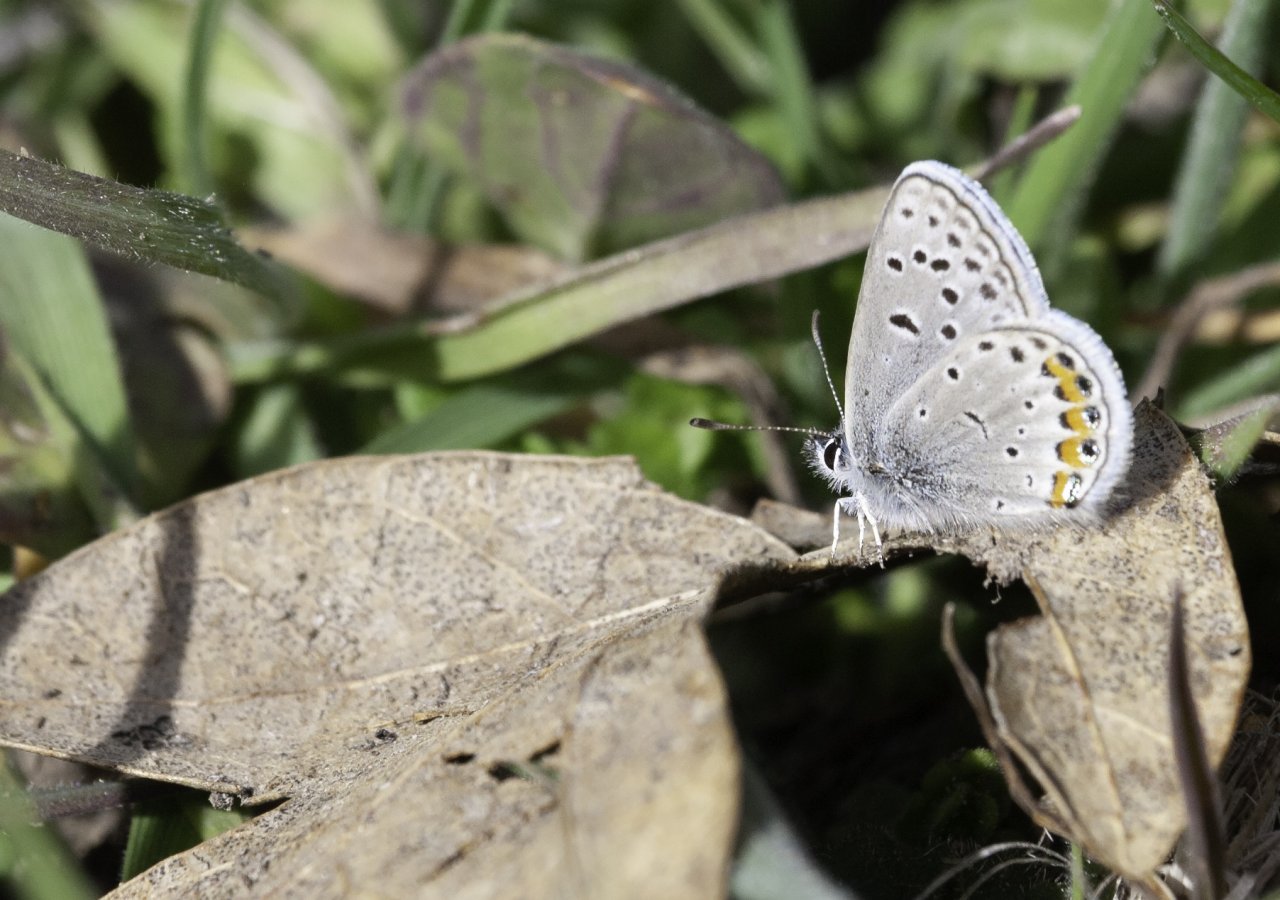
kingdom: Animalia
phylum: Arthropoda
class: Insecta
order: Lepidoptera
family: Lycaenidae
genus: Plebejus
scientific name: Plebejus acmon
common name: Acmon Blue
